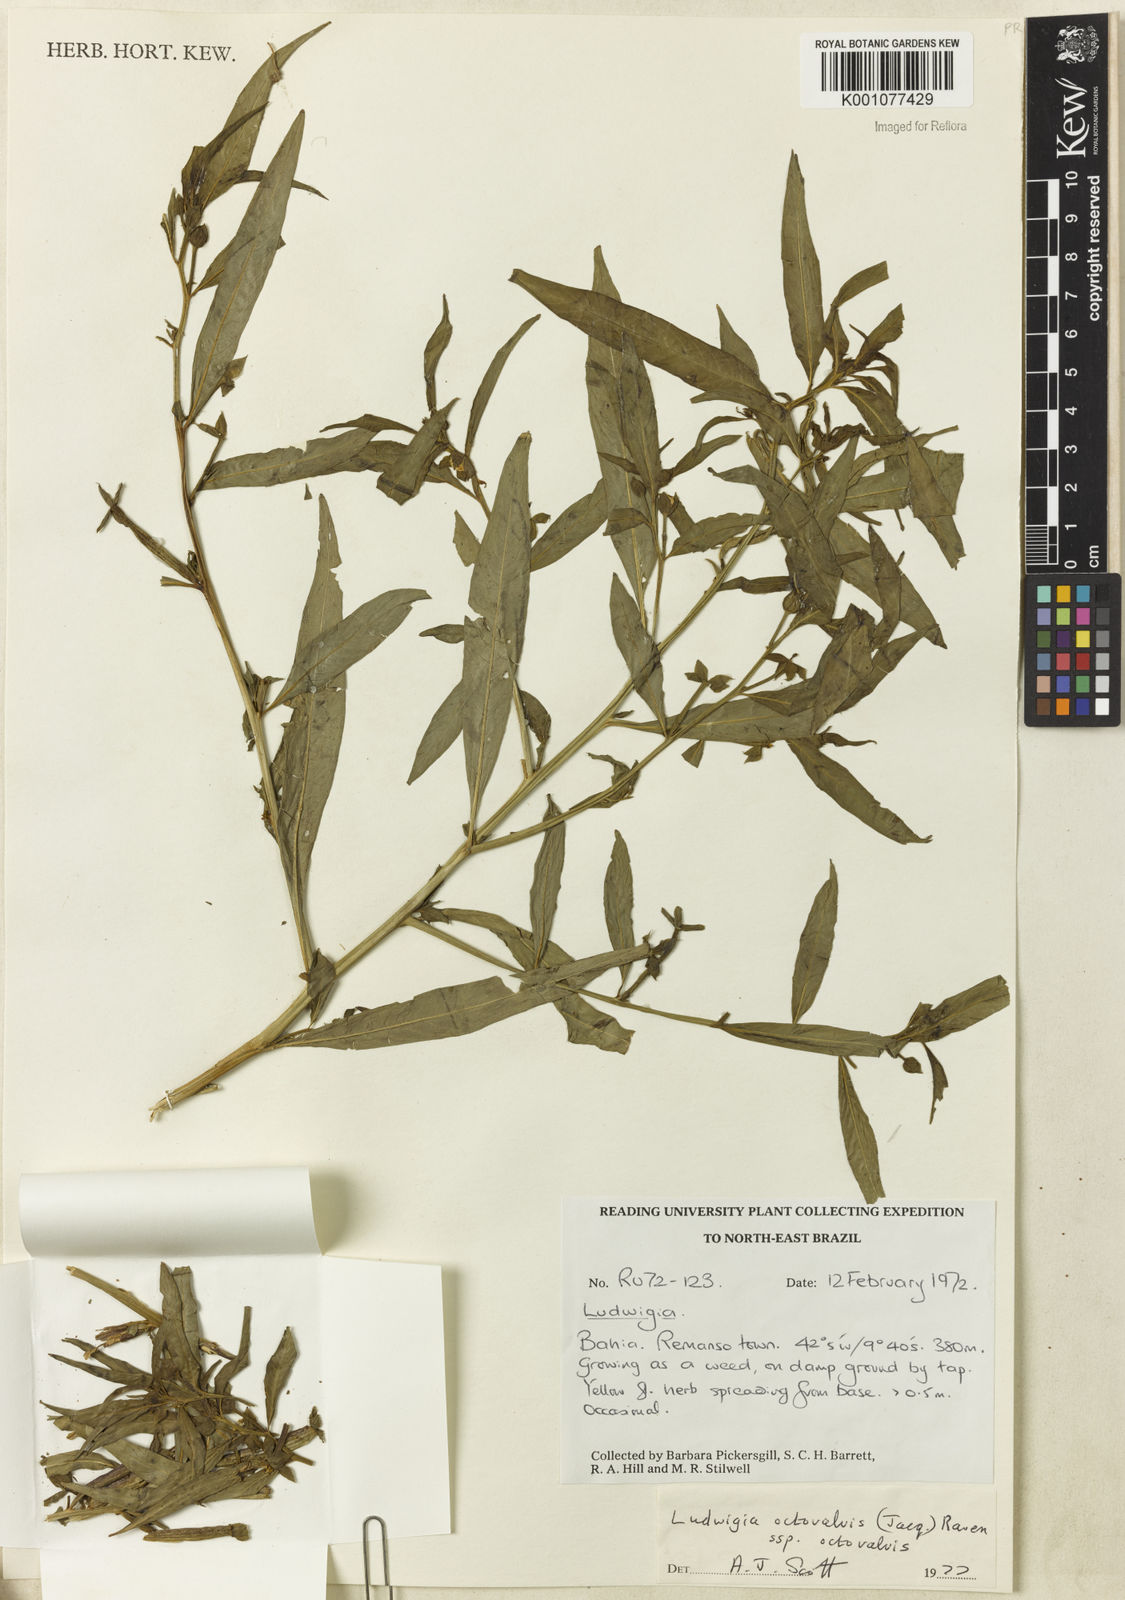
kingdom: Plantae
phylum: Tracheophyta
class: Magnoliopsida
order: Myrtales
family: Onagraceae
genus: Ludwigia
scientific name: Ludwigia octovalvis
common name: Water-primrose
